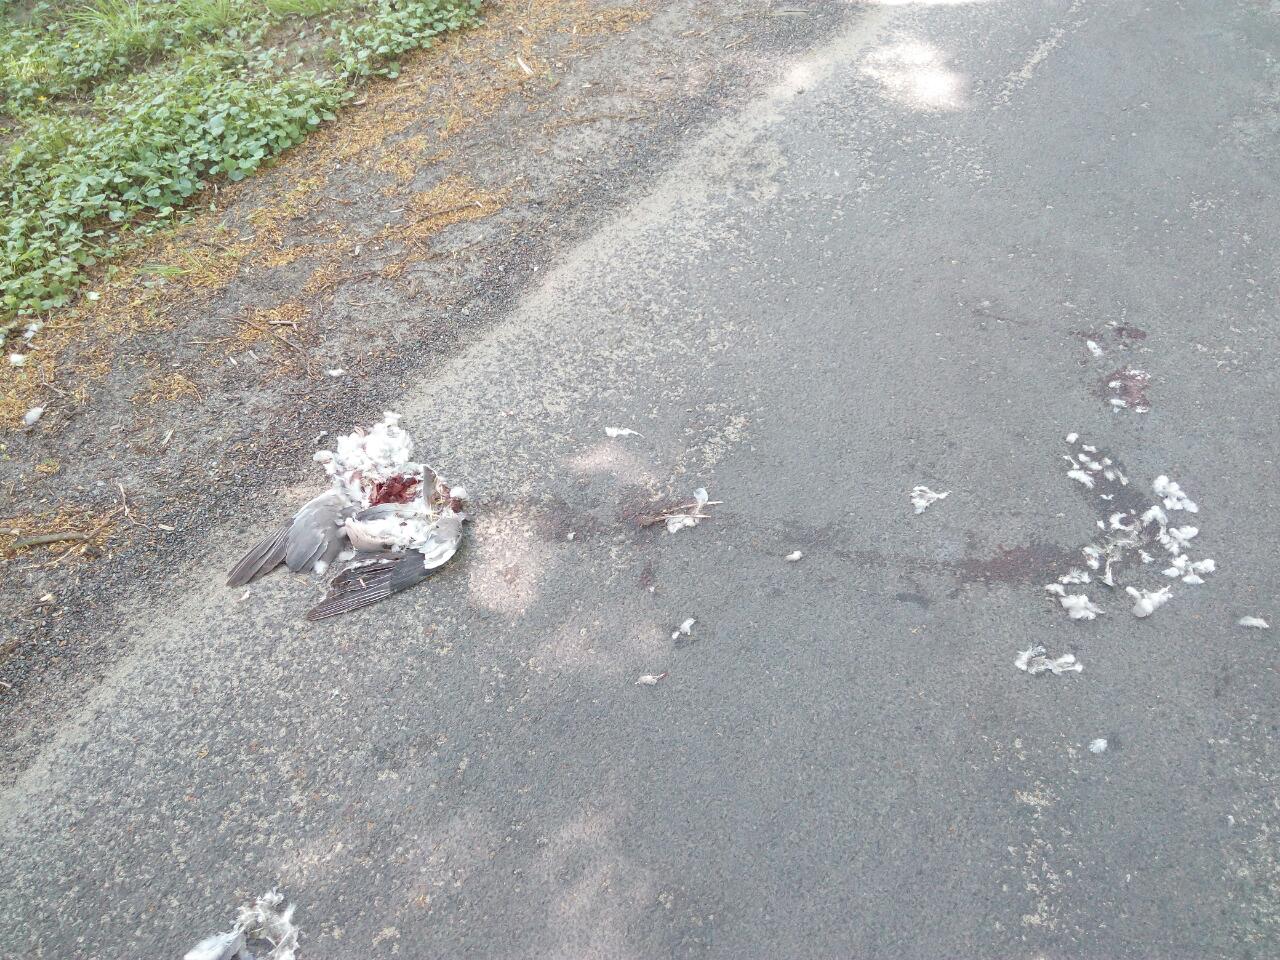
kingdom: Animalia
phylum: Chordata
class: Aves
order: Columbiformes
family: Columbidae
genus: Columba
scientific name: Columba livia
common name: Rock pigeon
